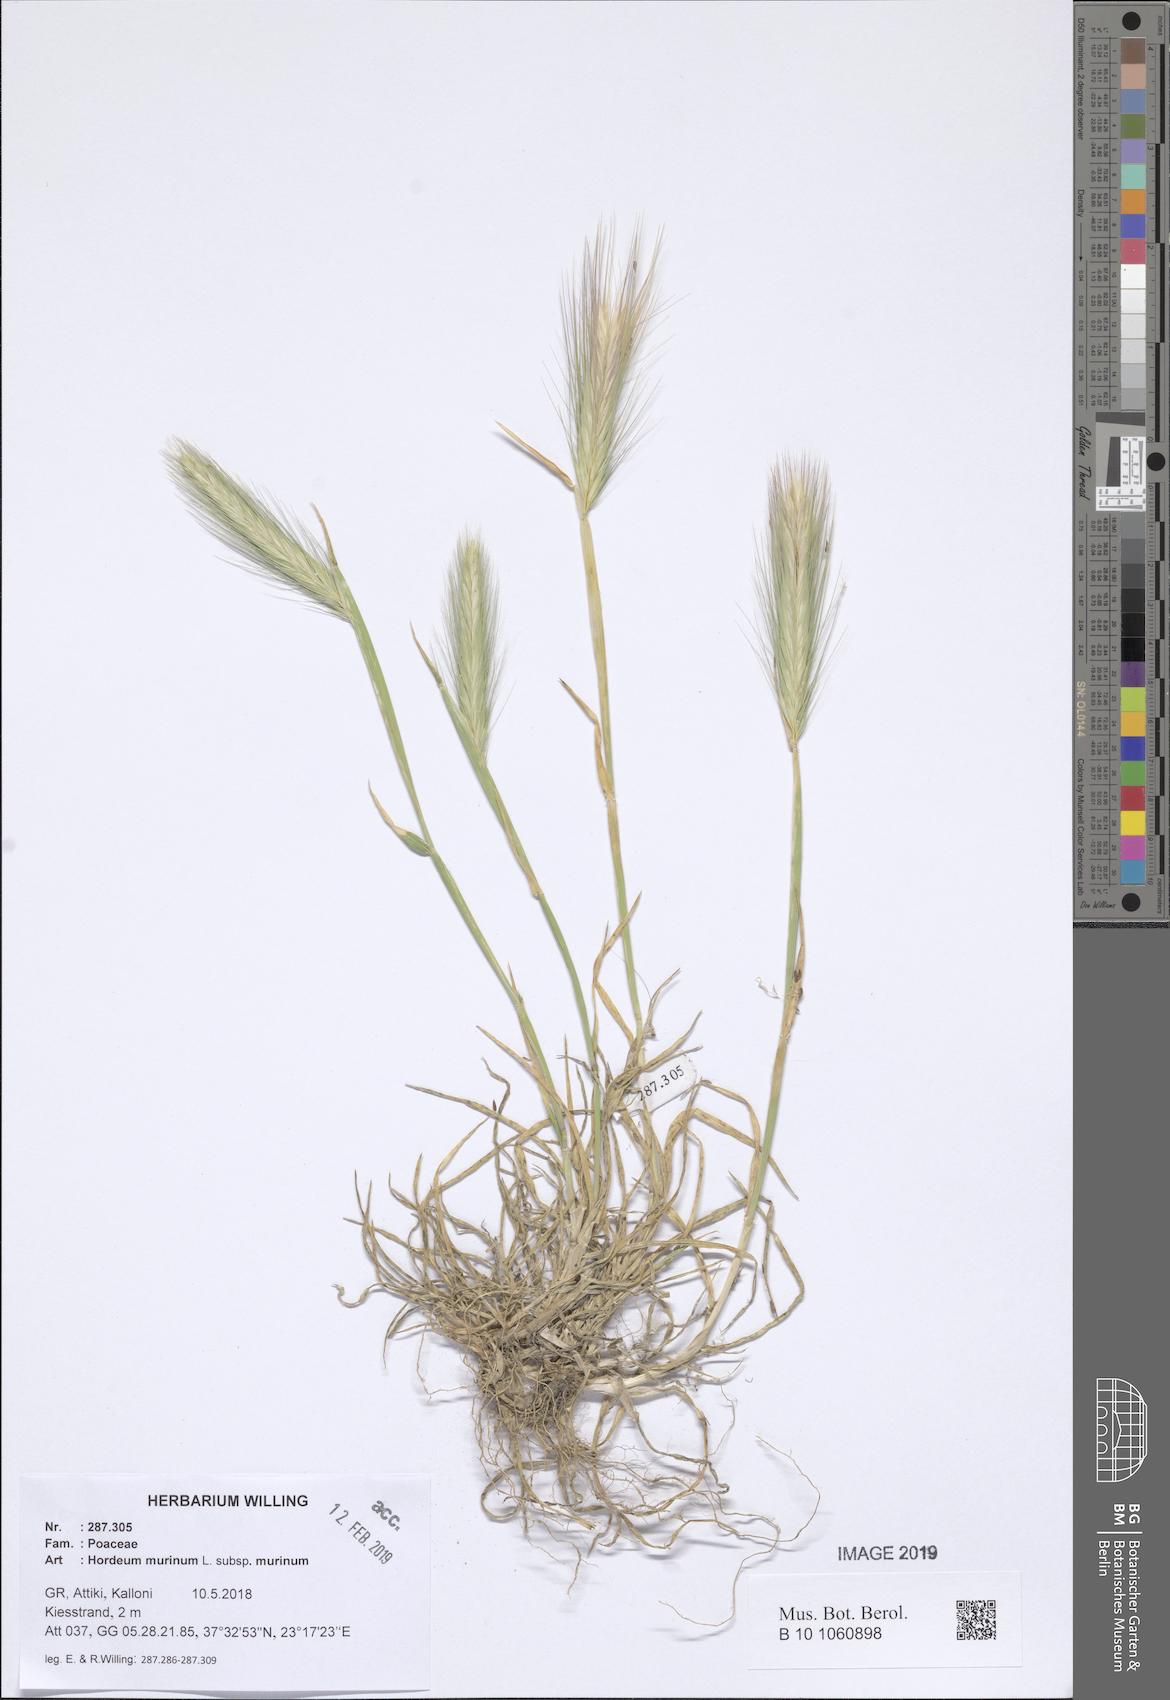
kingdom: Plantae
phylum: Tracheophyta
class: Liliopsida
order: Poales
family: Poaceae
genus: Hordeum
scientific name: Hordeum murinum
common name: Wall barley
